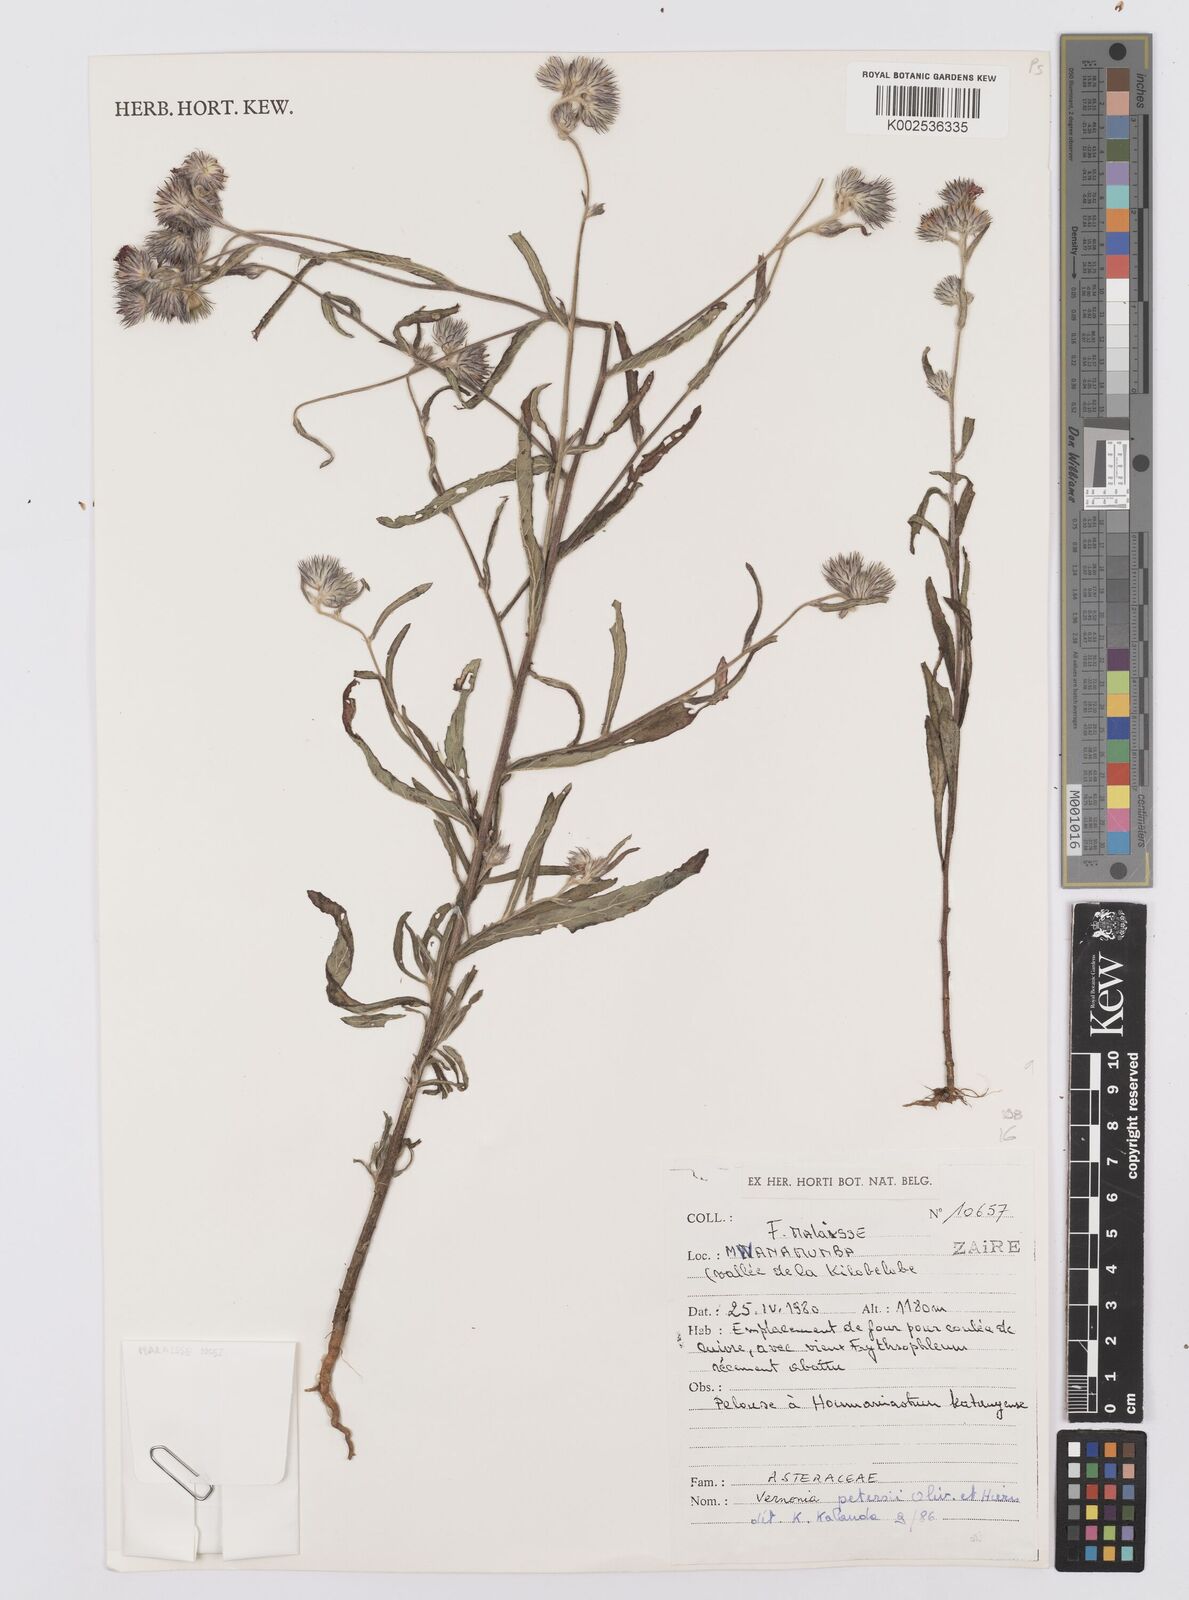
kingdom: Plantae
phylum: Tracheophyta
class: Magnoliopsida
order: Asterales
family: Asteraceae
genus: Vernoniastrum
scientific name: Vernoniastrum latifolium
